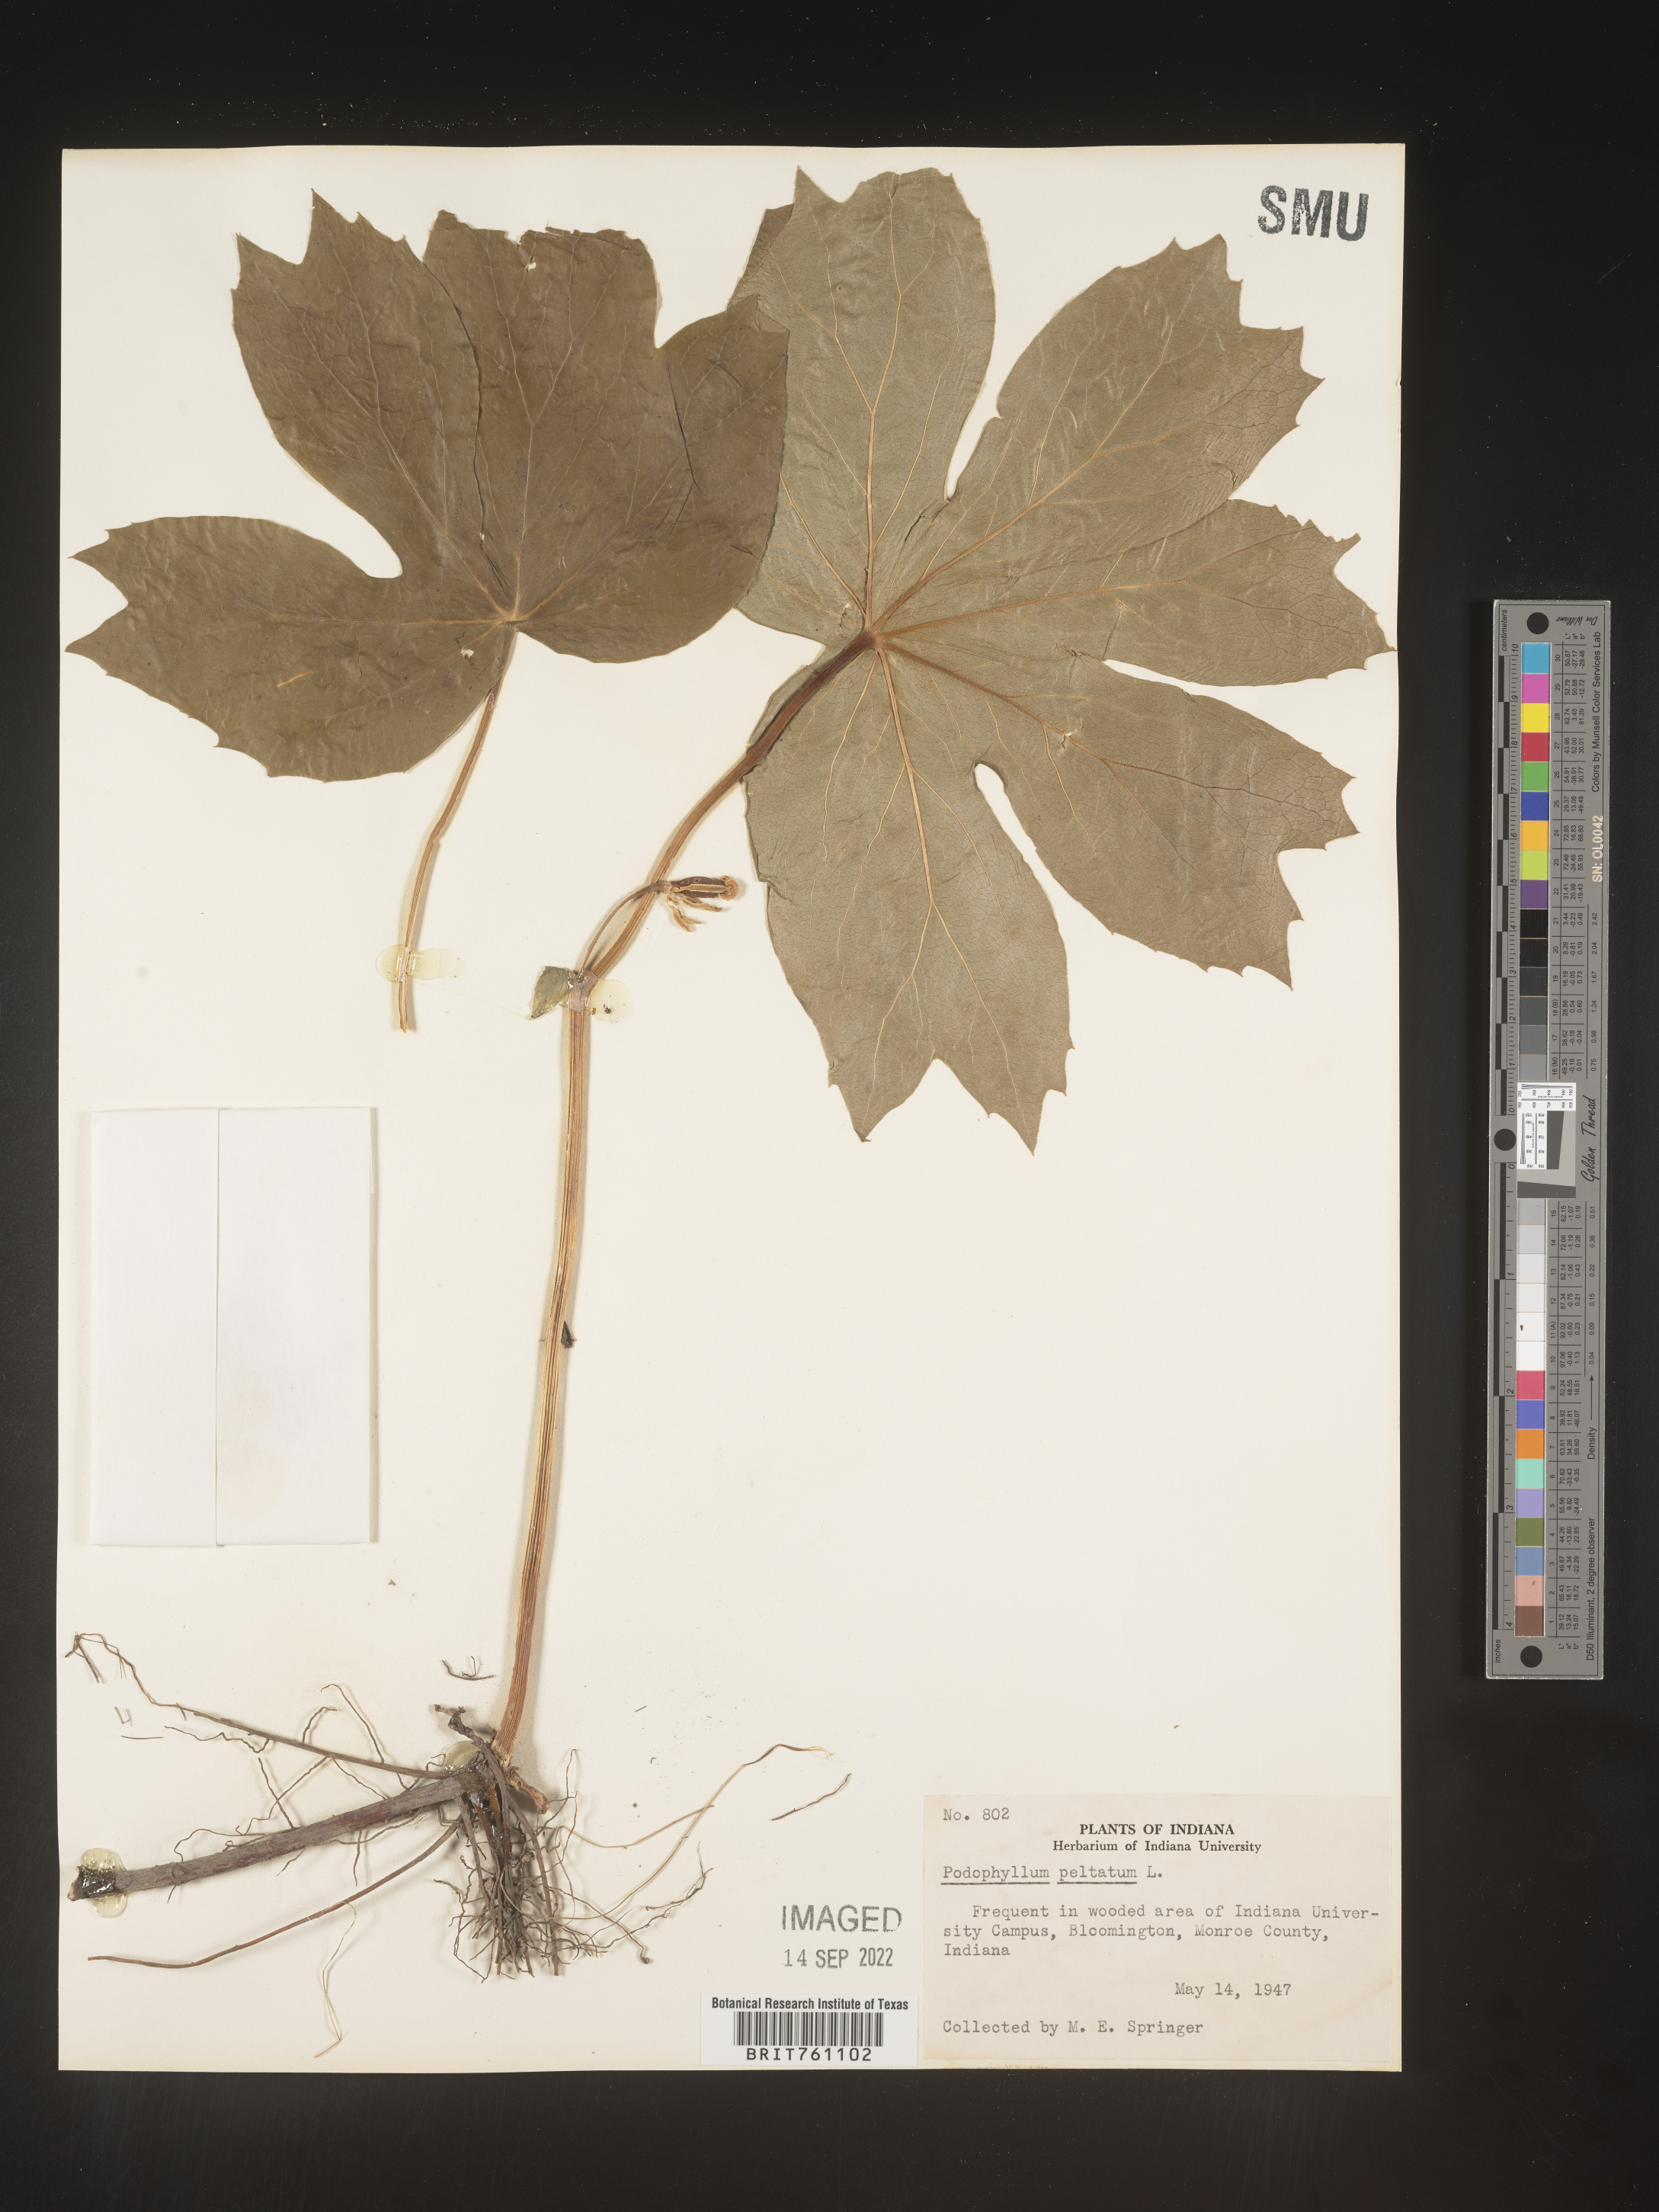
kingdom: Plantae
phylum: Tracheophyta
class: Magnoliopsida
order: Ranunculales
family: Berberidaceae
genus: Podophyllum
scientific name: Podophyllum peltatum
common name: Wild mandrake
